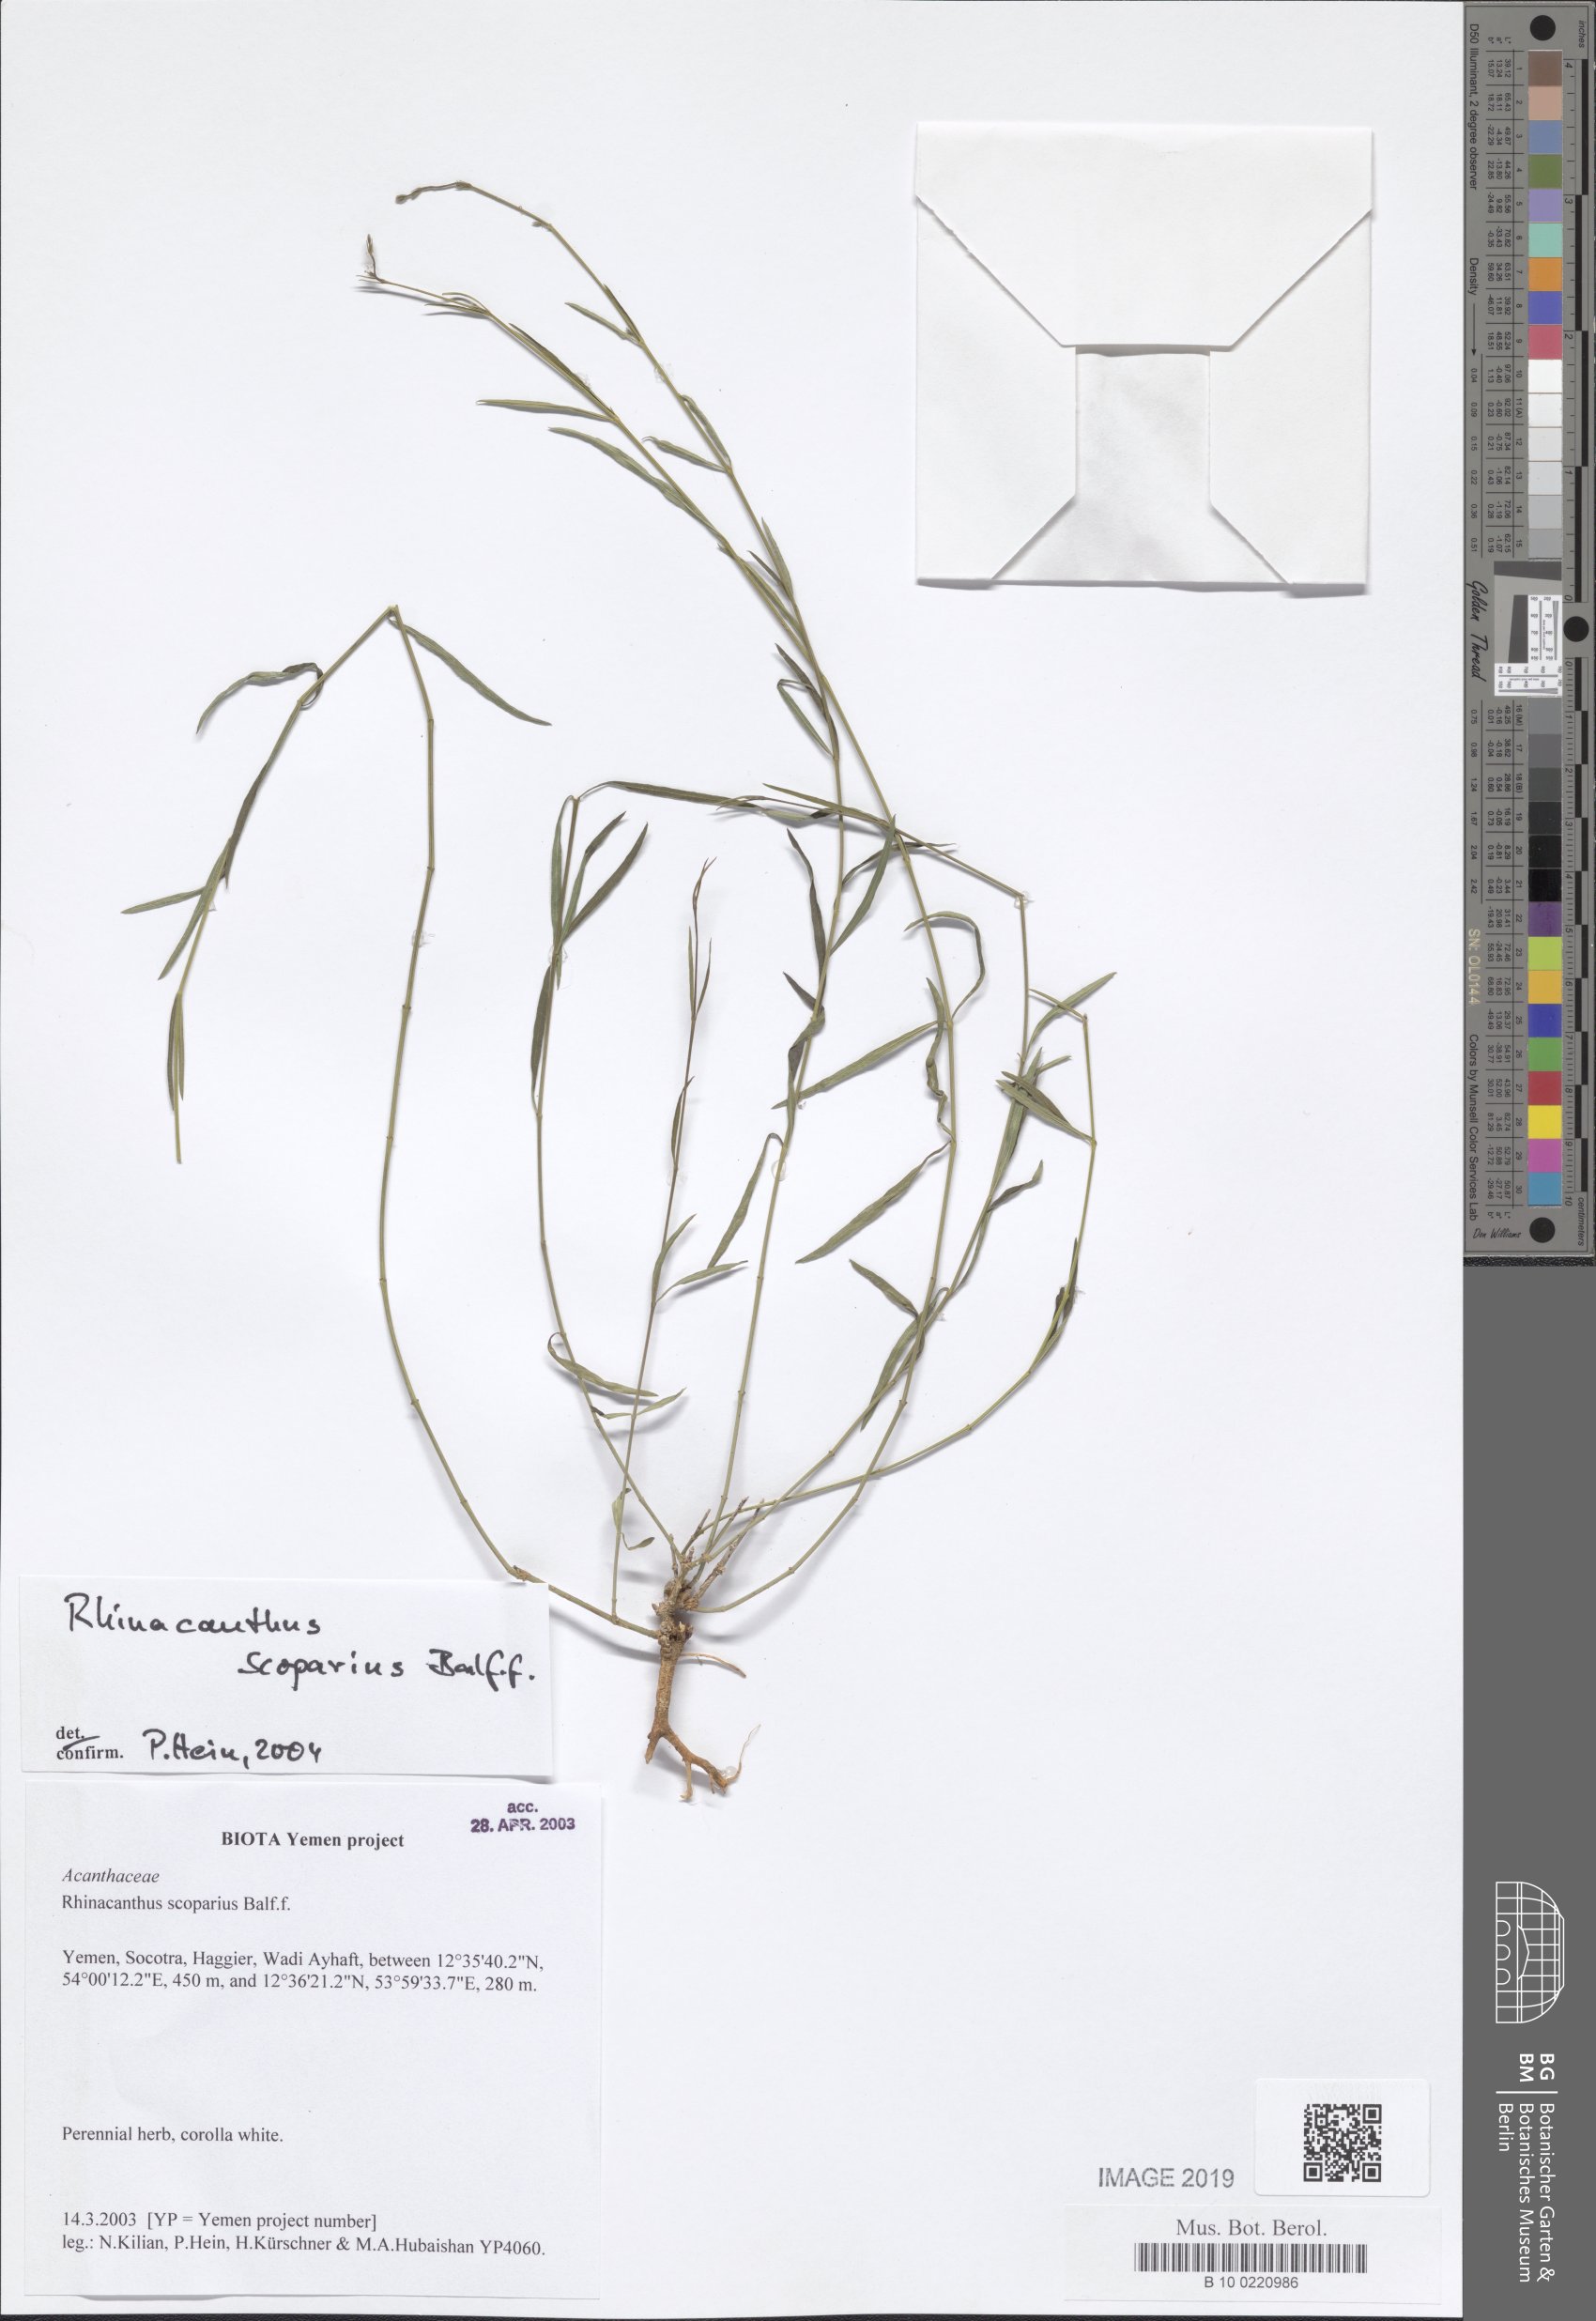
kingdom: Plantae
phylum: Tracheophyta
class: Magnoliopsida
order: Lamiales
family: Acanthaceae
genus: Rhinacanthus
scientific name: Rhinacanthus scoparius
